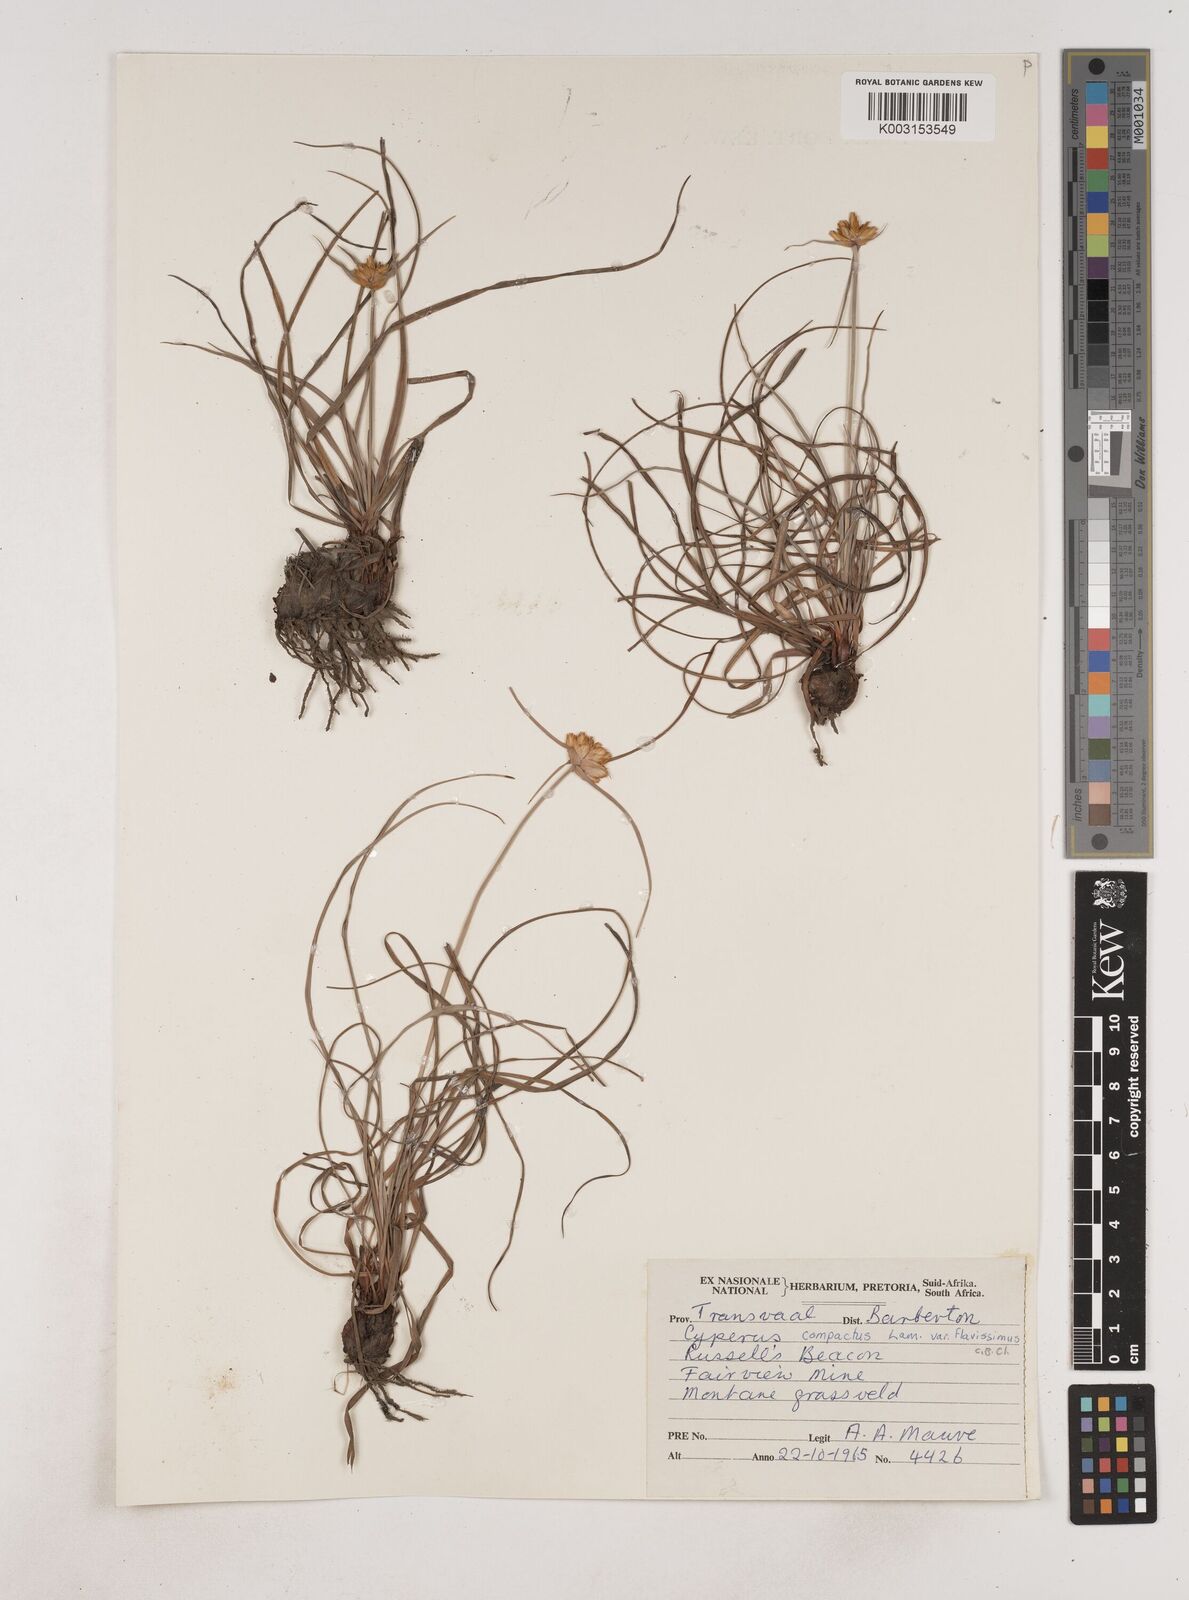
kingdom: Plantae
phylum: Tracheophyta
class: Liliopsida
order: Poales
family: Cyperaceae
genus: Cyperus
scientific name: Cyperus niveus
